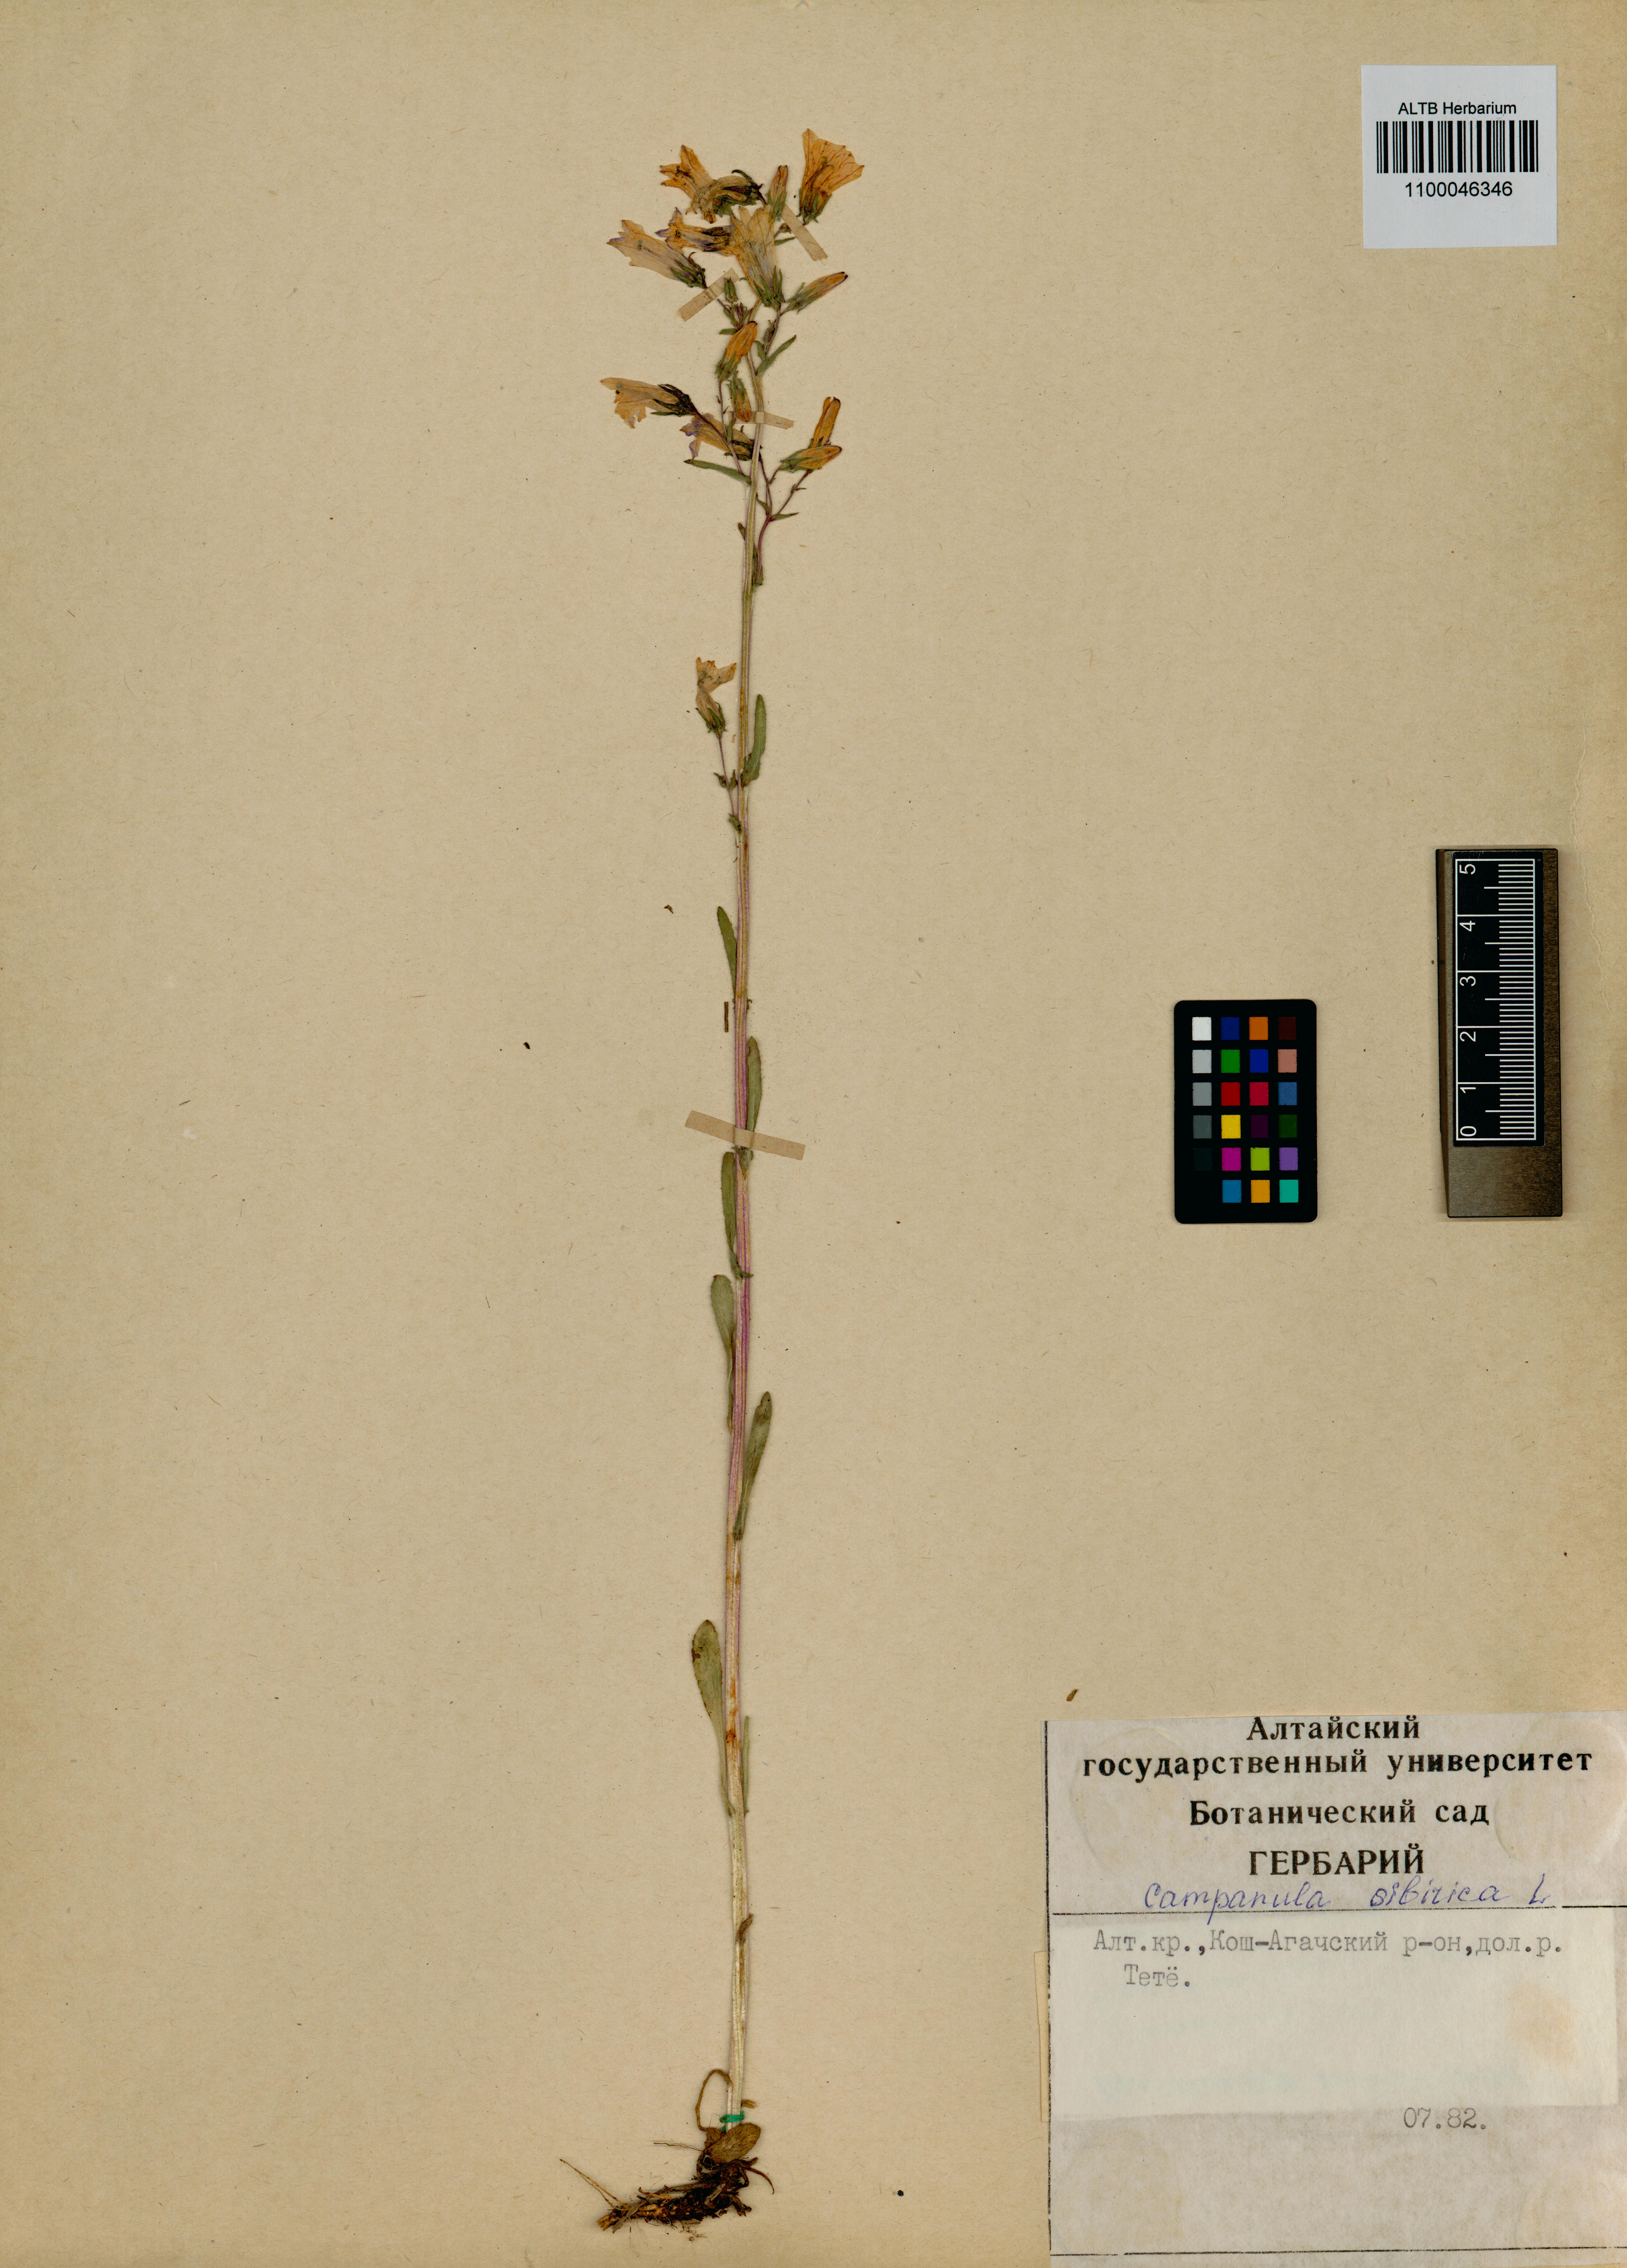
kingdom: Plantae
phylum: Tracheophyta
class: Magnoliopsida
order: Asterales
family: Campanulaceae
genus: Campanula
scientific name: Campanula sibirica
